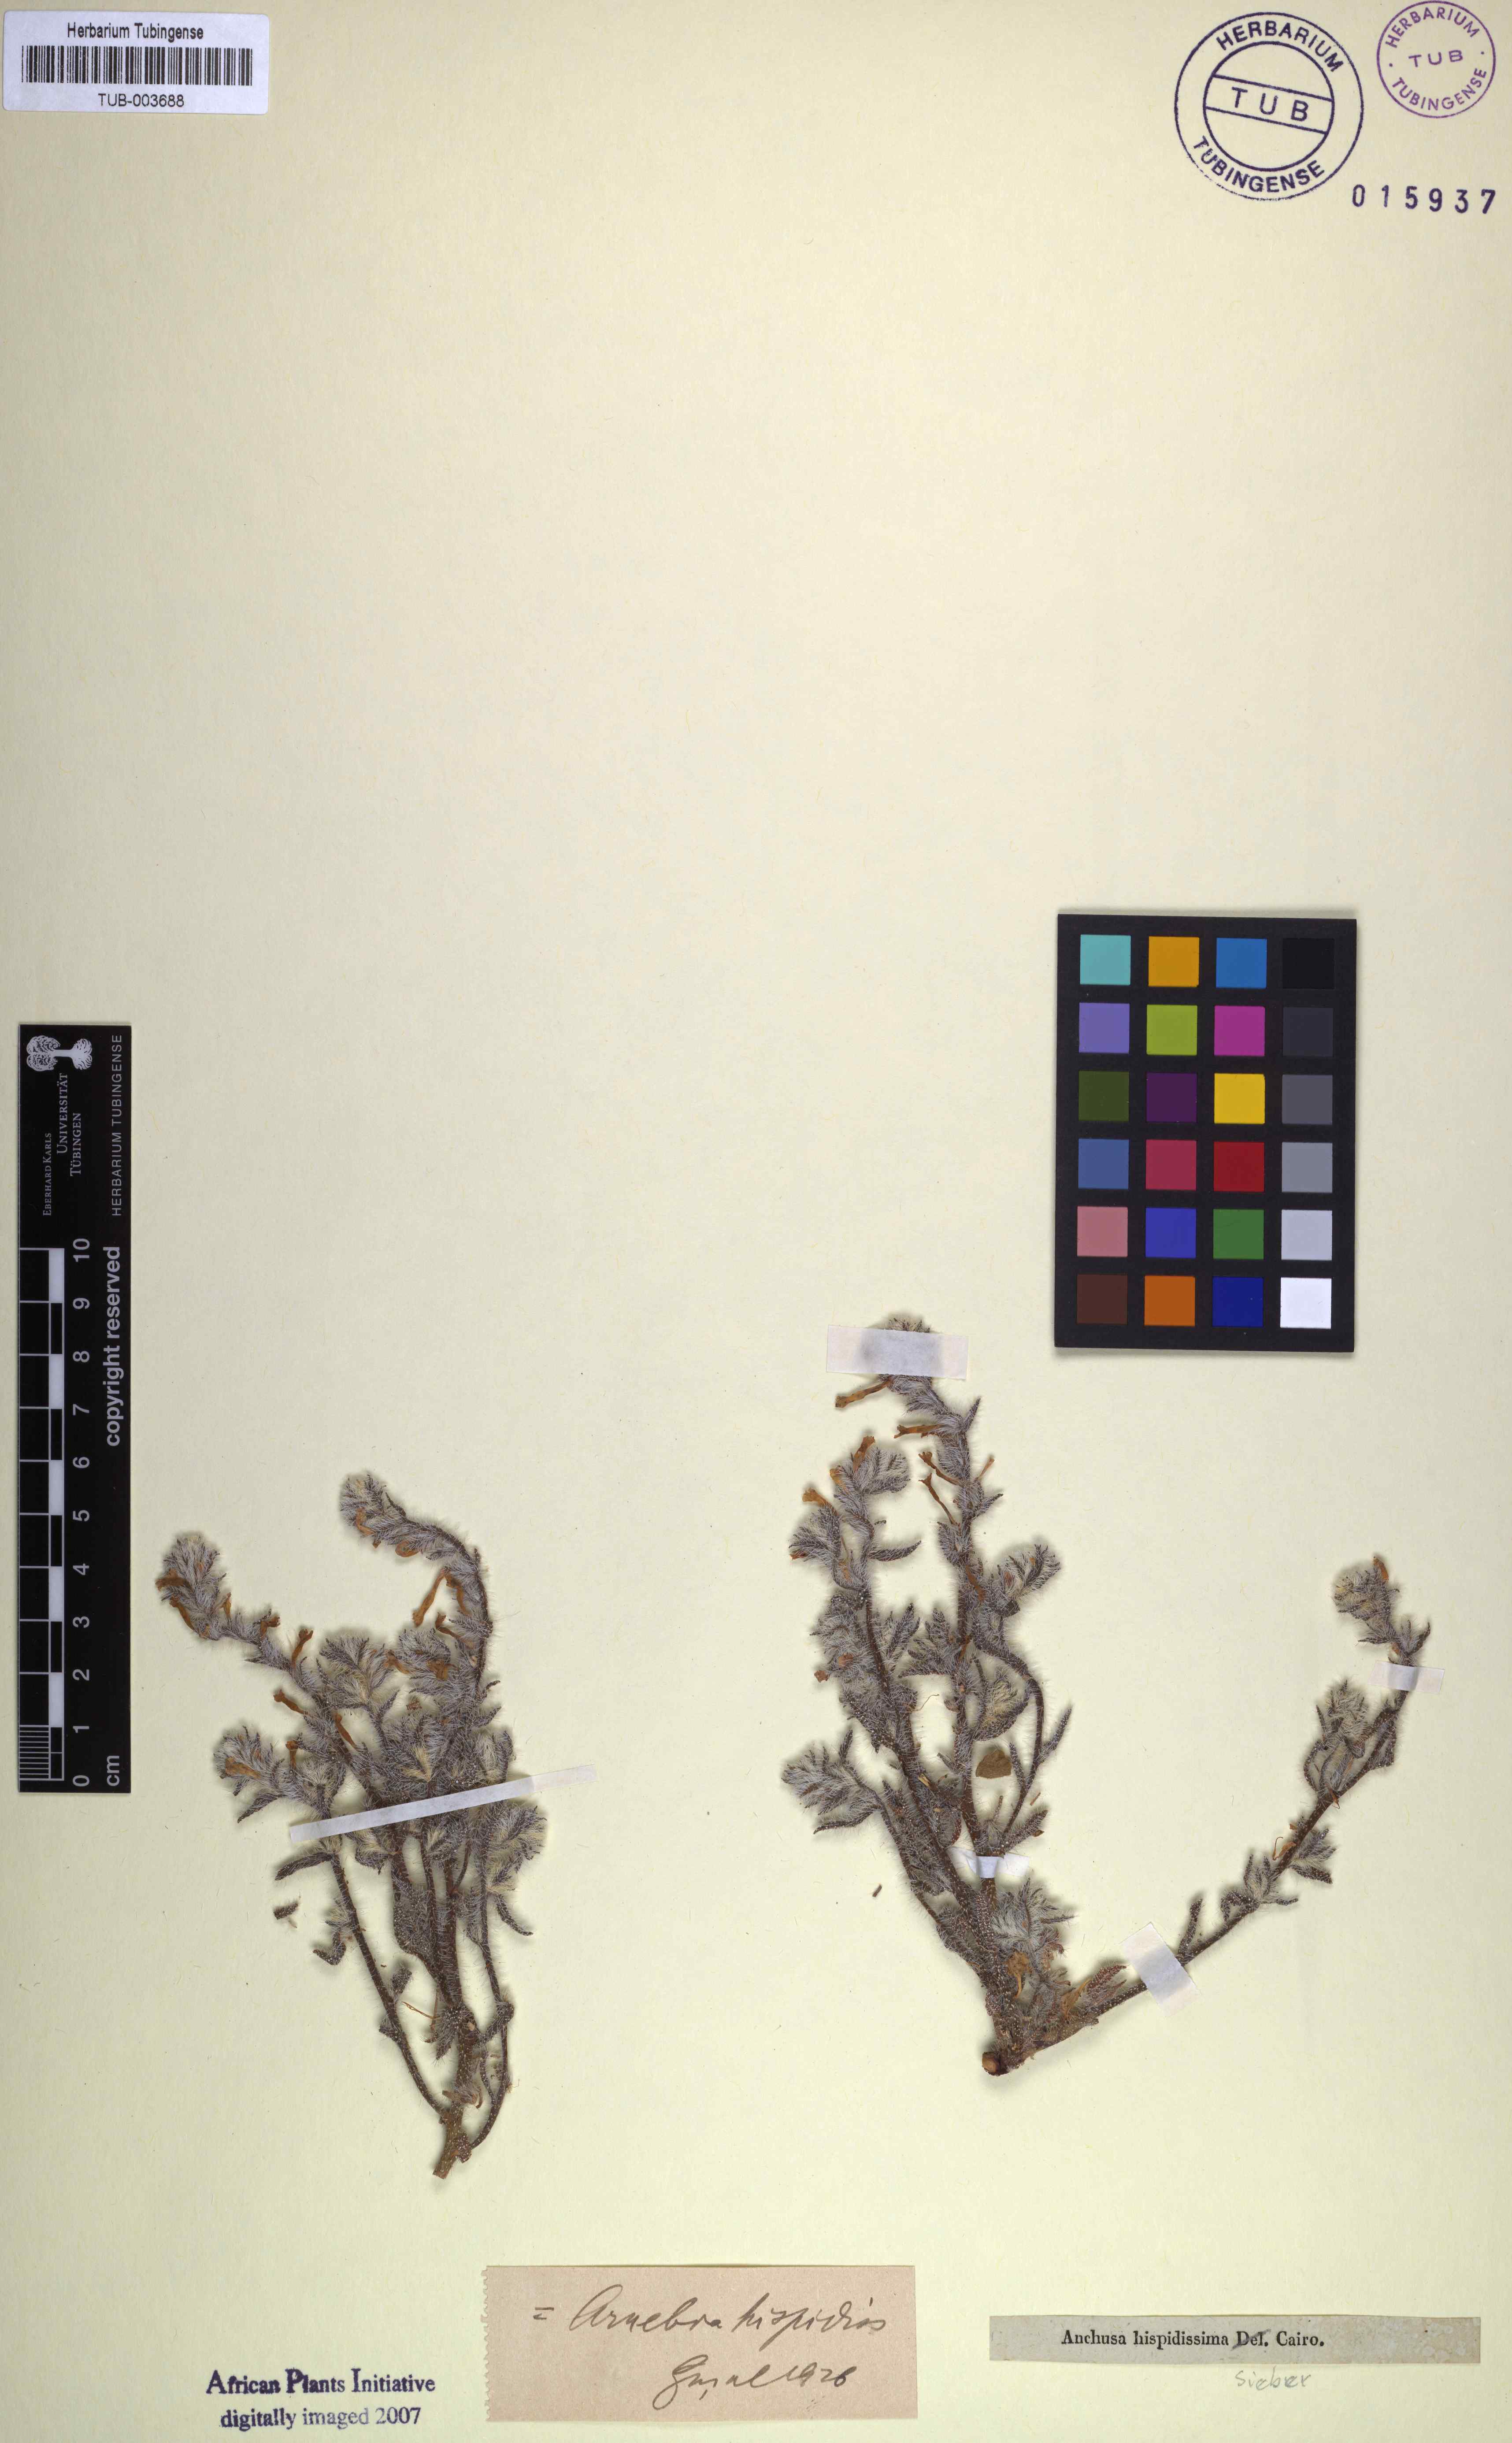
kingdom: Plantae
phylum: Tracheophyta
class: Magnoliopsida
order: Boraginales
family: Boraginaceae
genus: Arnebia
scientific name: Arnebia hispidissima
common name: Arabian-primrose
